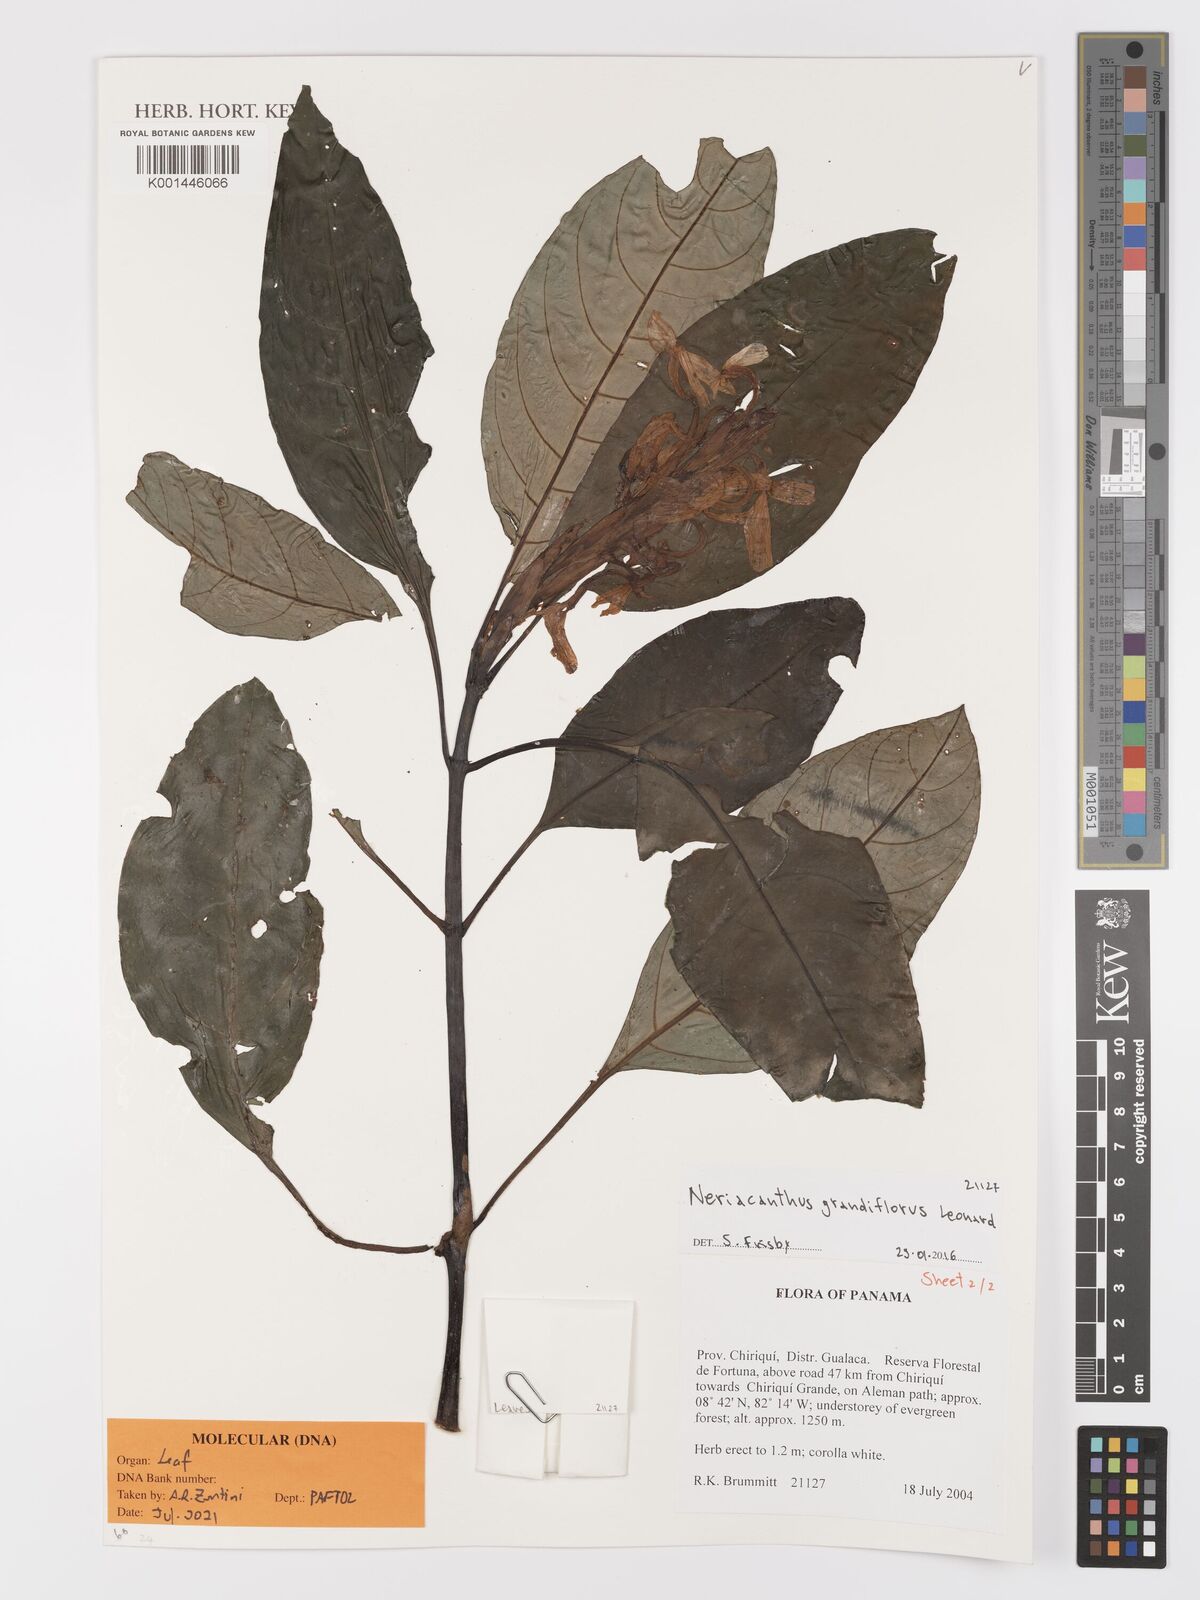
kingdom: Plantae
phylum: Tracheophyta
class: Magnoliopsida
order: Lamiales
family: Acanthaceae
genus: Neriacanthus
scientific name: Neriacanthus grandiflorus
